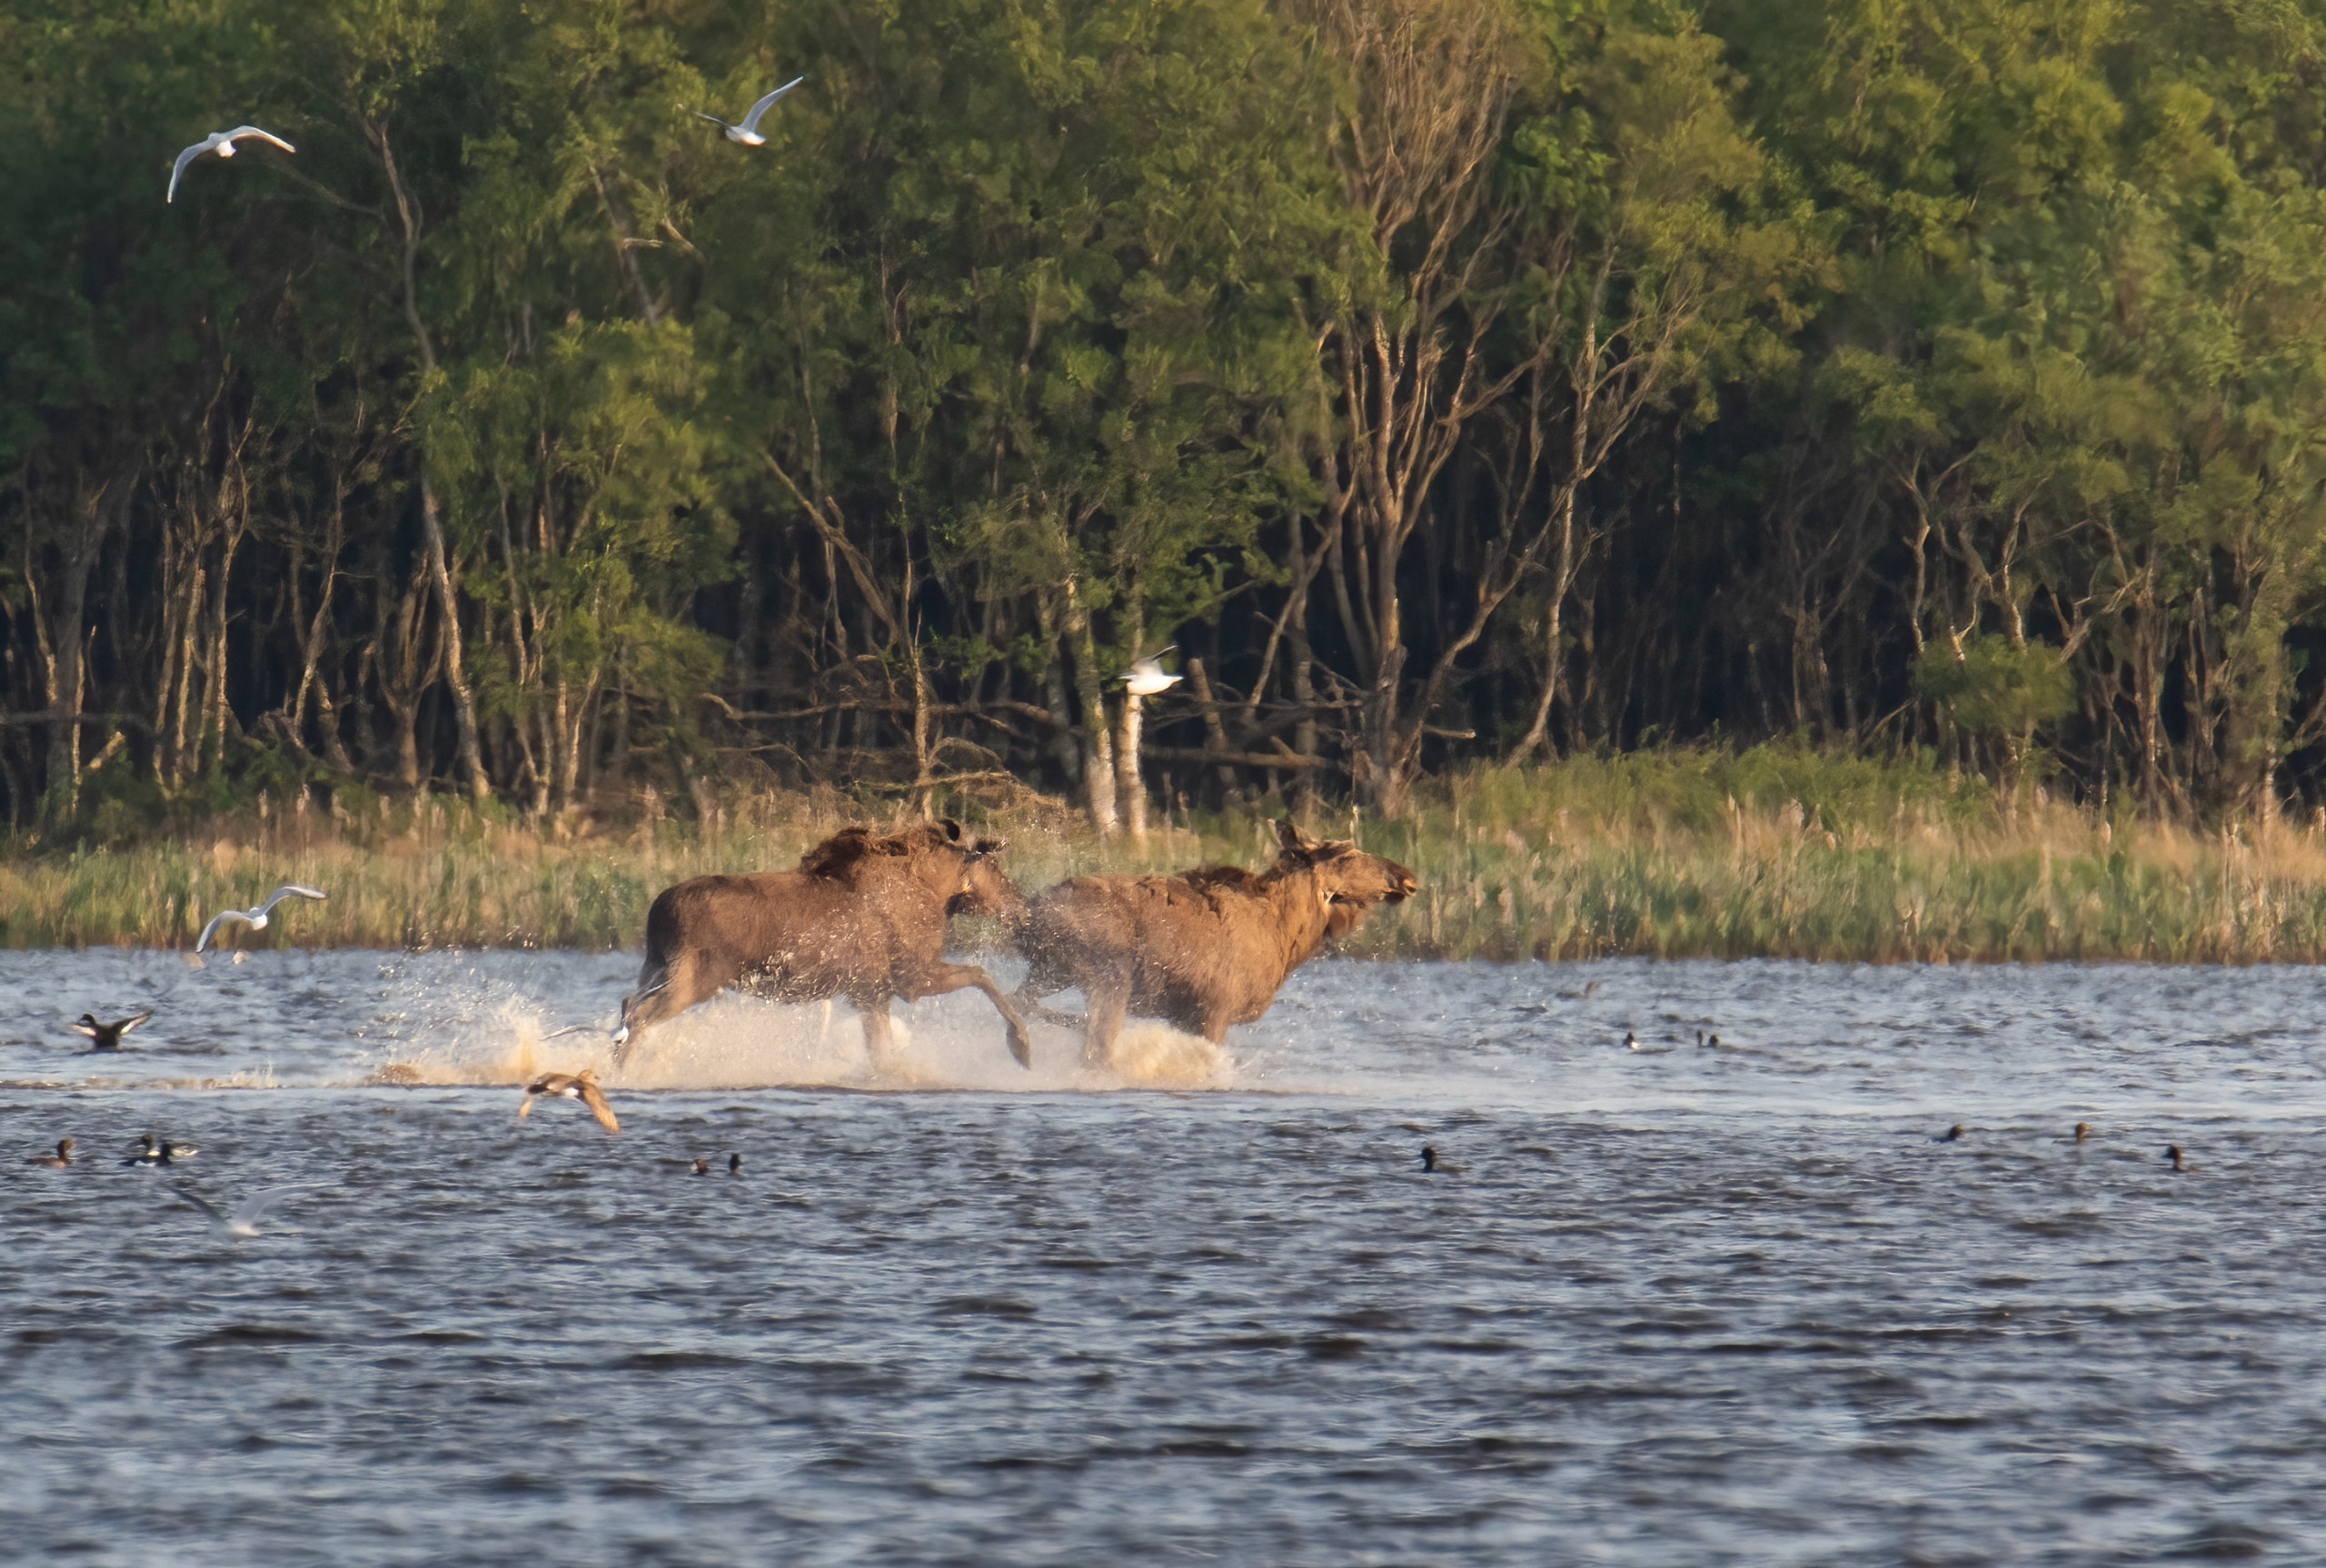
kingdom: Animalia
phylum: Chordata
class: Mammalia
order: Artiodactyla
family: Cervidae
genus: Alces
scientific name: Alces alces
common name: Elg
